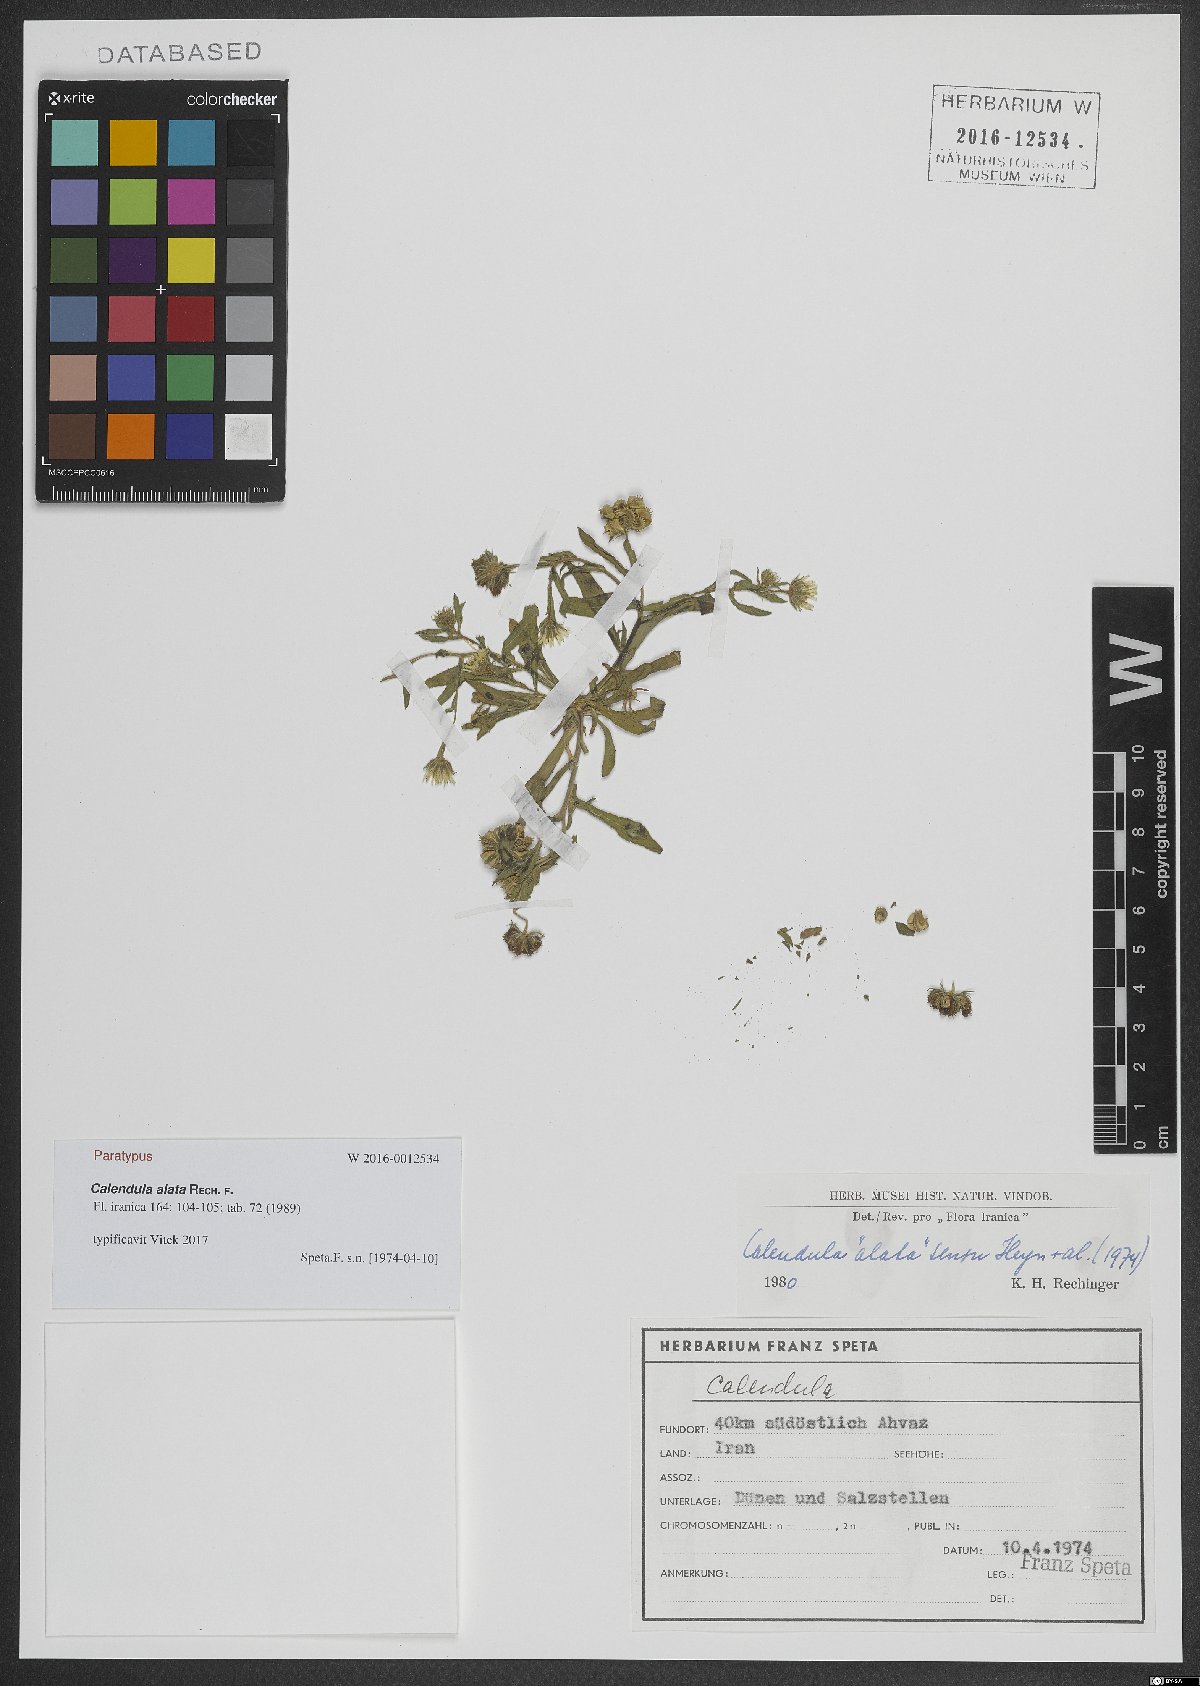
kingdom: Plantae
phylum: Tracheophyta
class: Magnoliopsida
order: Asterales
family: Asteraceae
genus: Calendula
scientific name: Calendula arvensis
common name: Field marigold
